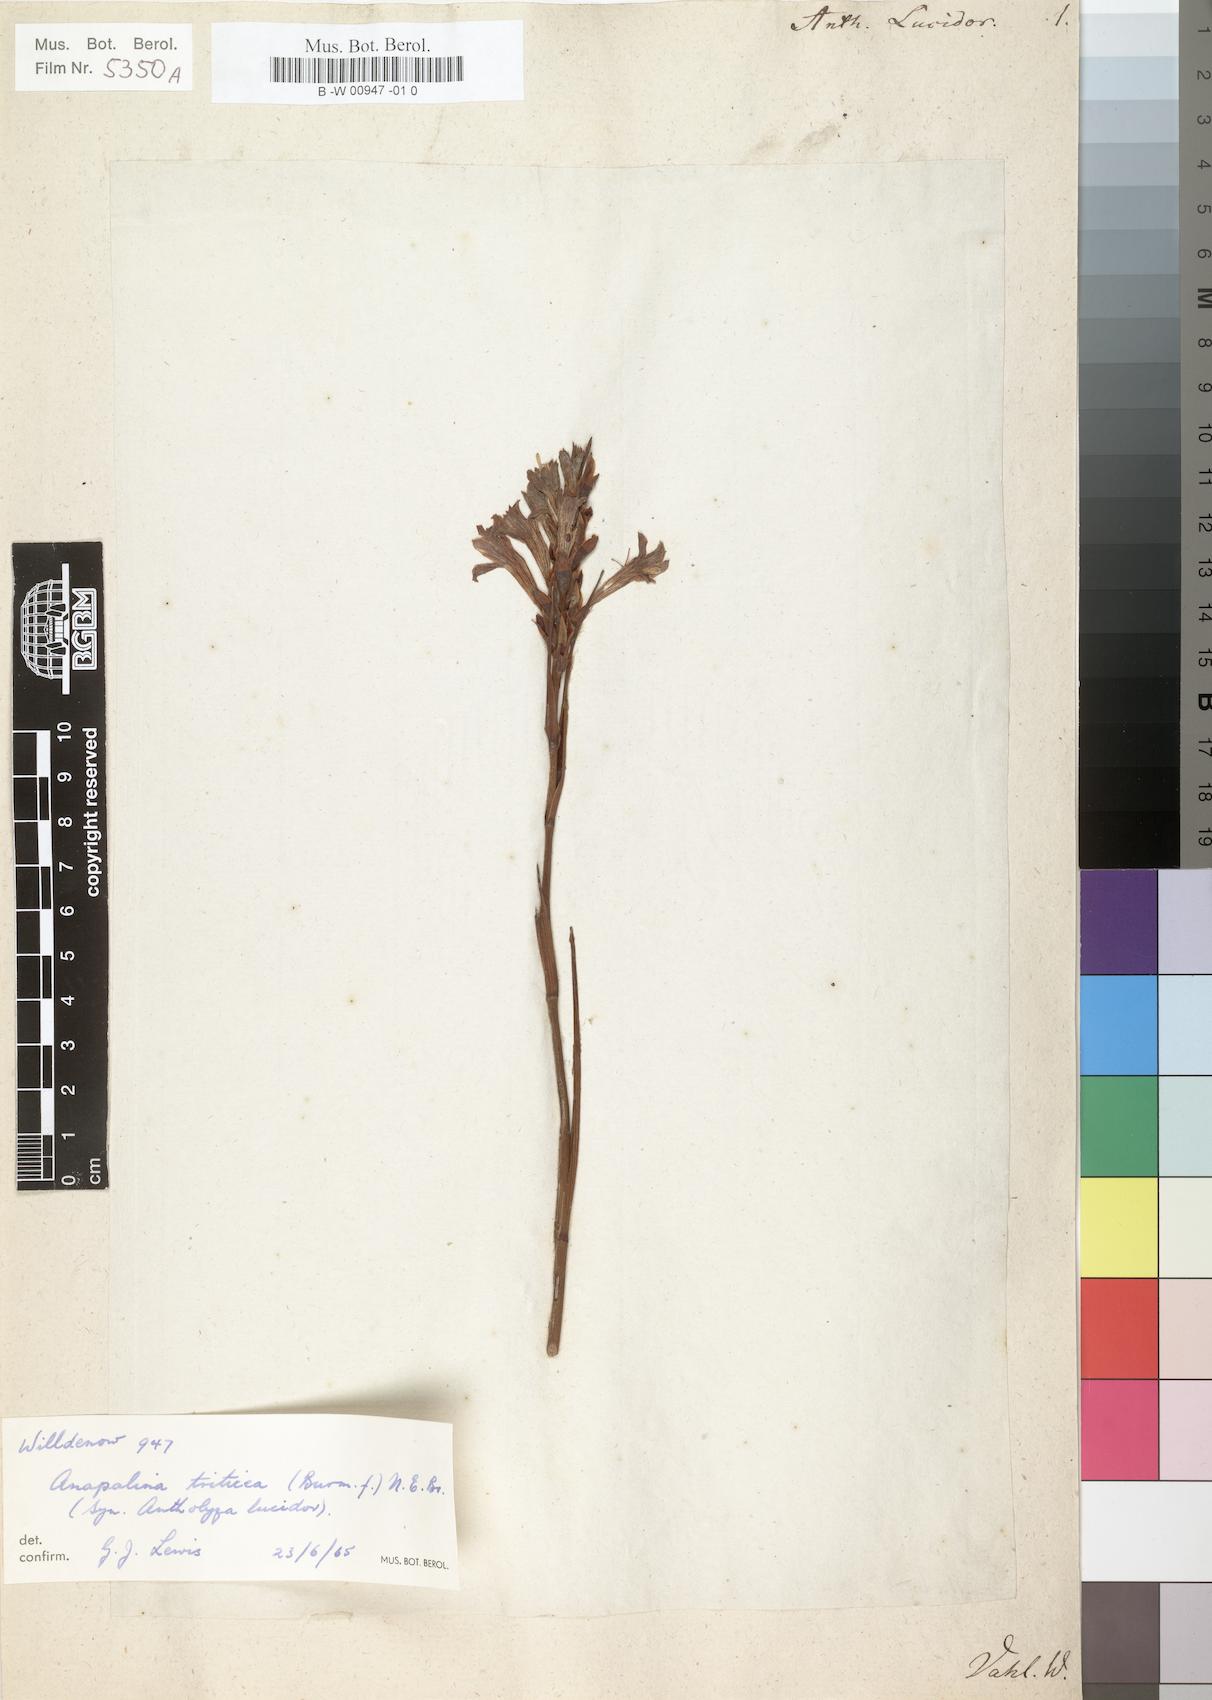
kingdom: Plantae
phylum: Tracheophyta
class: Liliopsida
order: Asparagales
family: Iridaceae
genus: Tritoniopsis
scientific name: Tritoniopsis triticea
